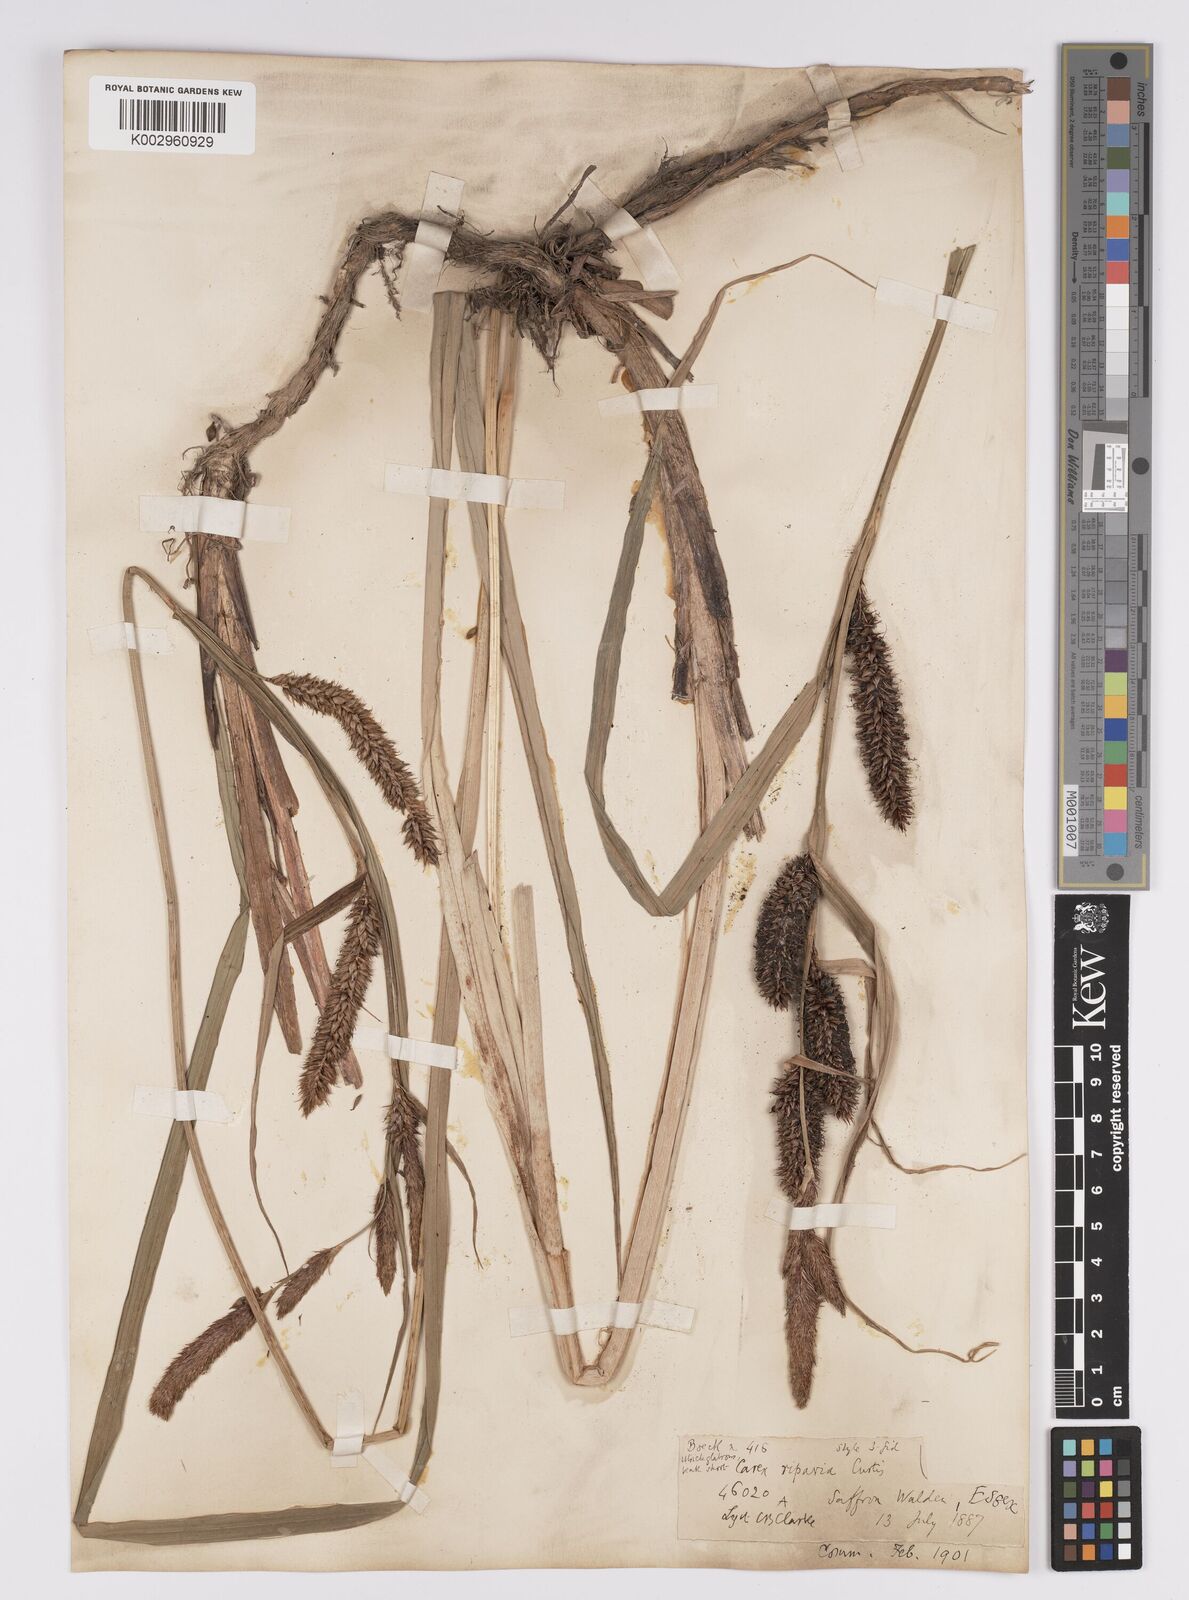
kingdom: Plantae
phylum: Tracheophyta
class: Liliopsida
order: Poales
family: Cyperaceae
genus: Carex
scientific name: Carex riparia
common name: Greater pond-sedge
